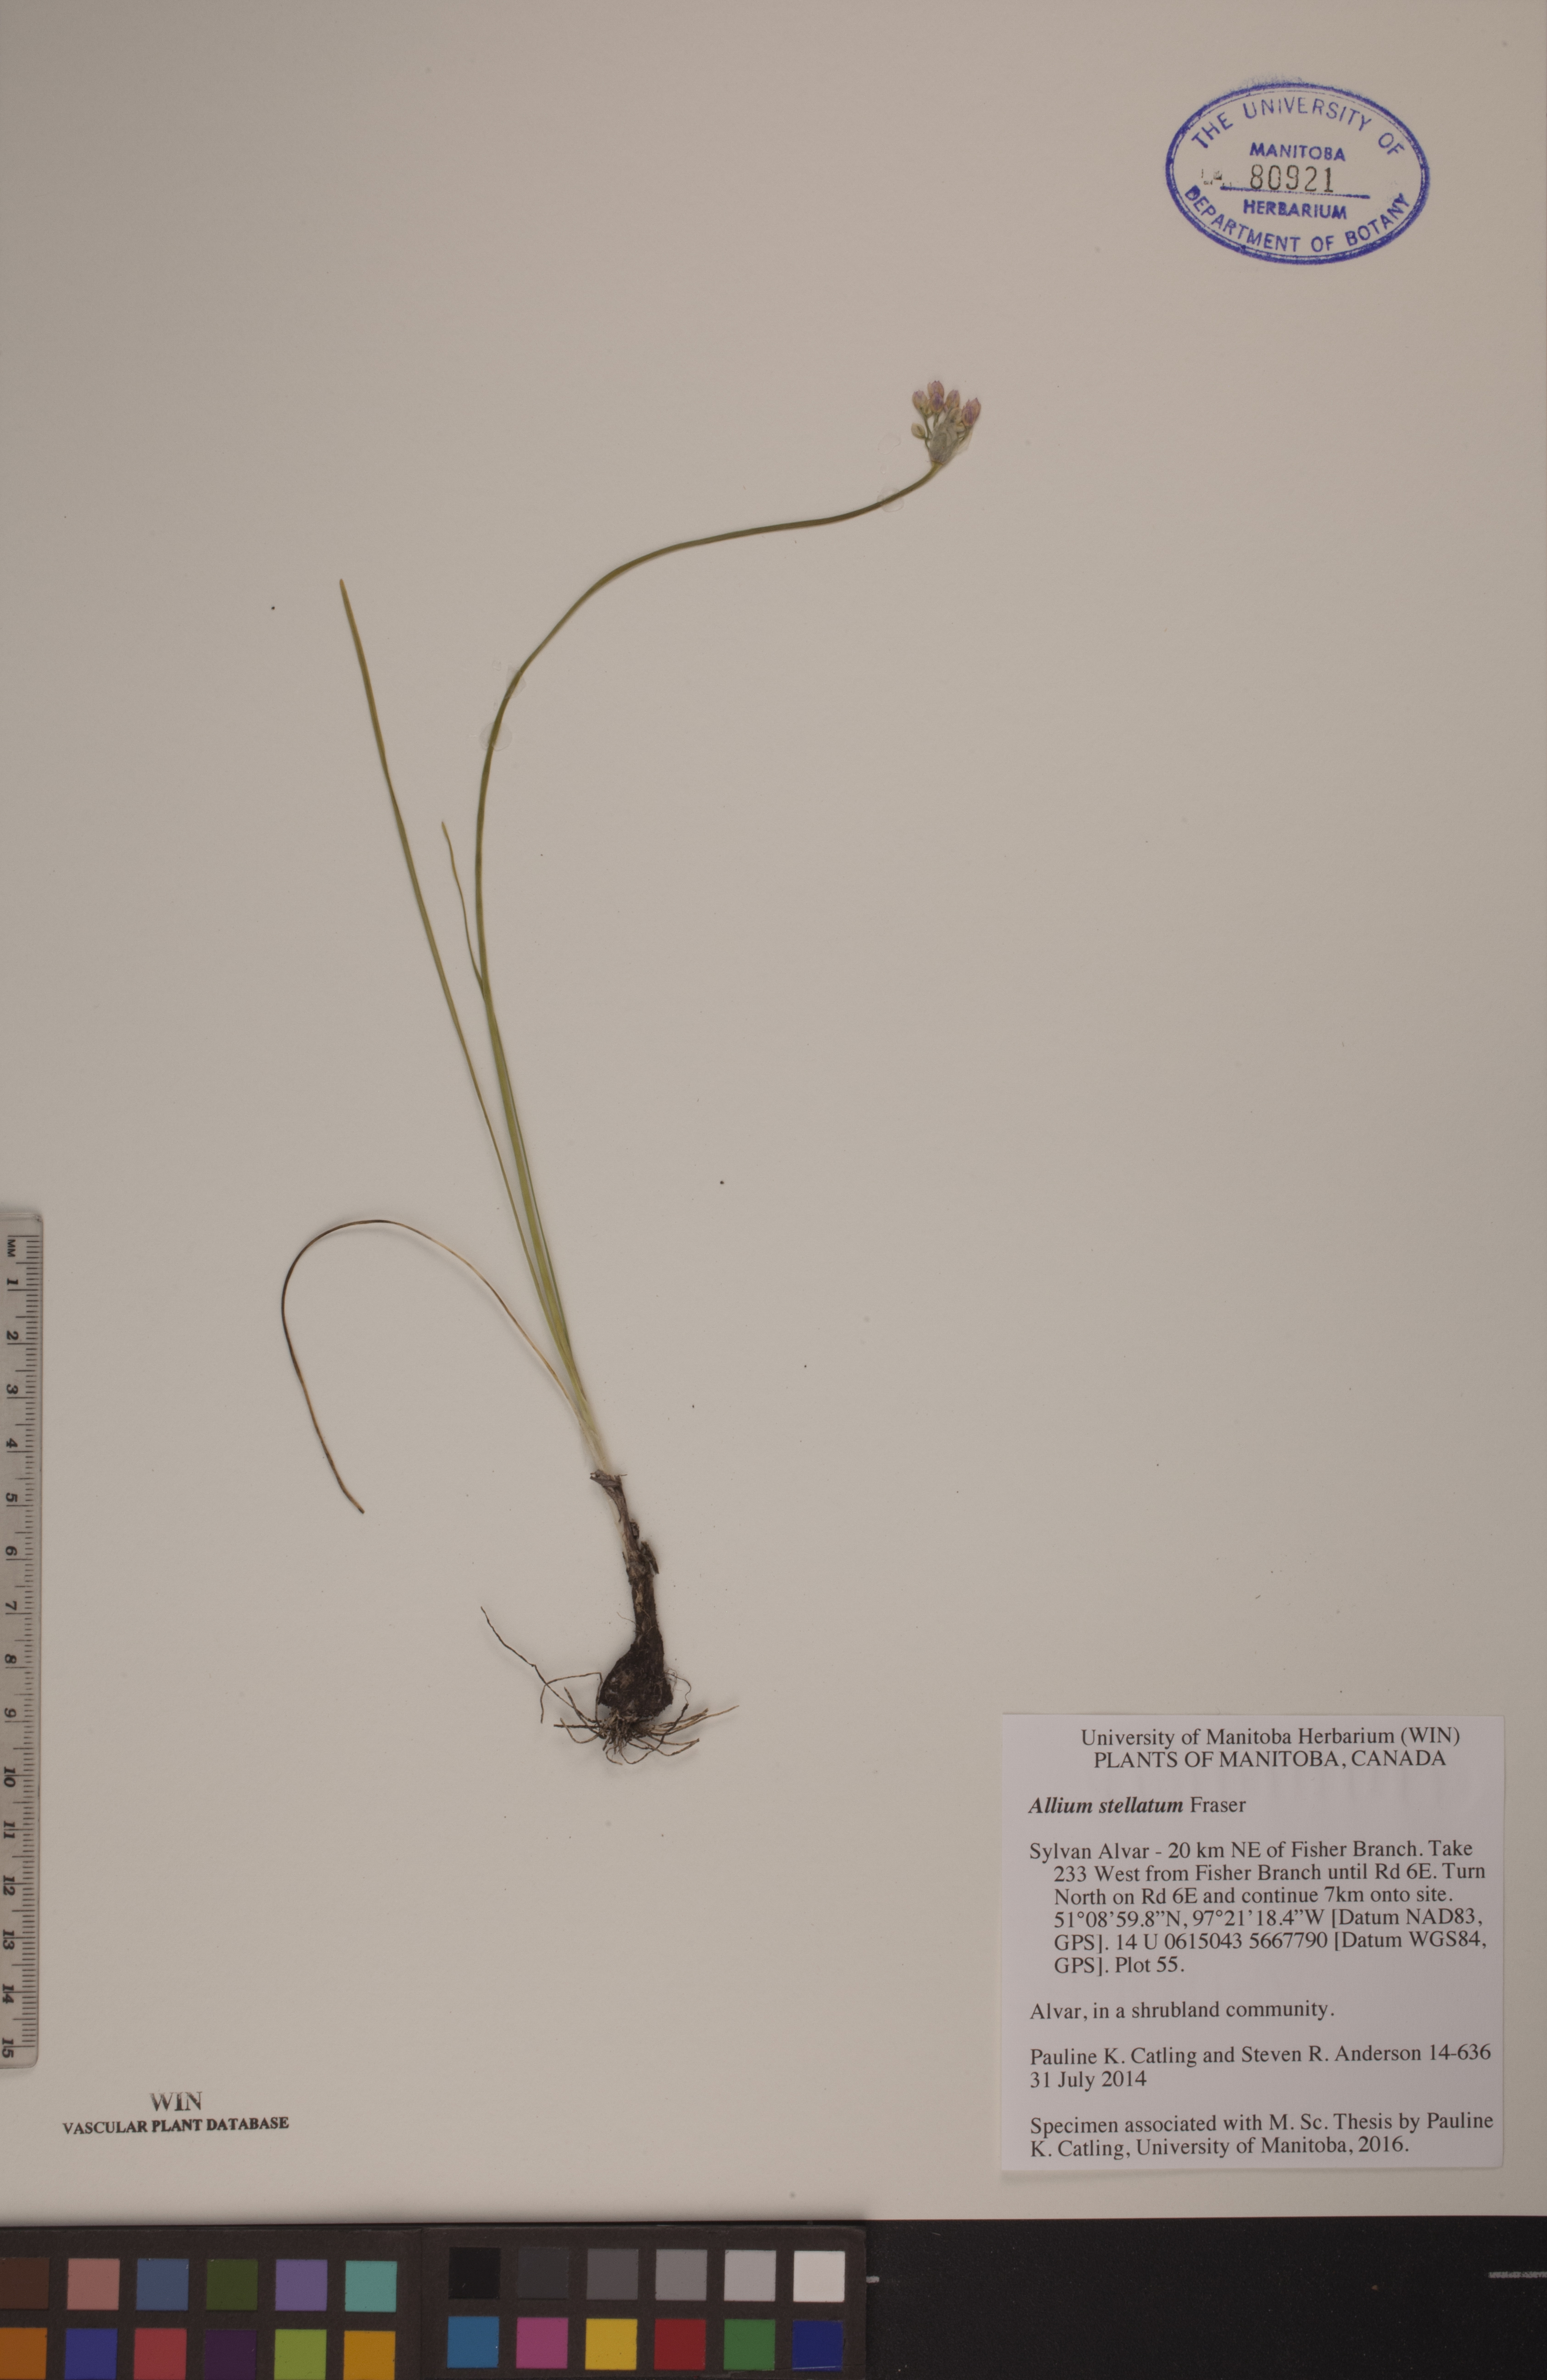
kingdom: Plantae
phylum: Tracheophyta
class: Liliopsida
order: Asparagales
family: Amaryllidaceae
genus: Allium
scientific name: Allium stellatum
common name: Autumn onion
